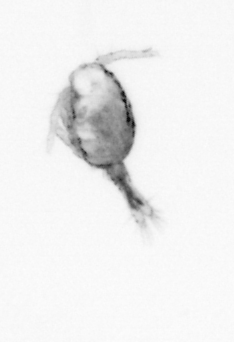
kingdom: Animalia
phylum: Arthropoda
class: Copepoda
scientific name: Copepoda
